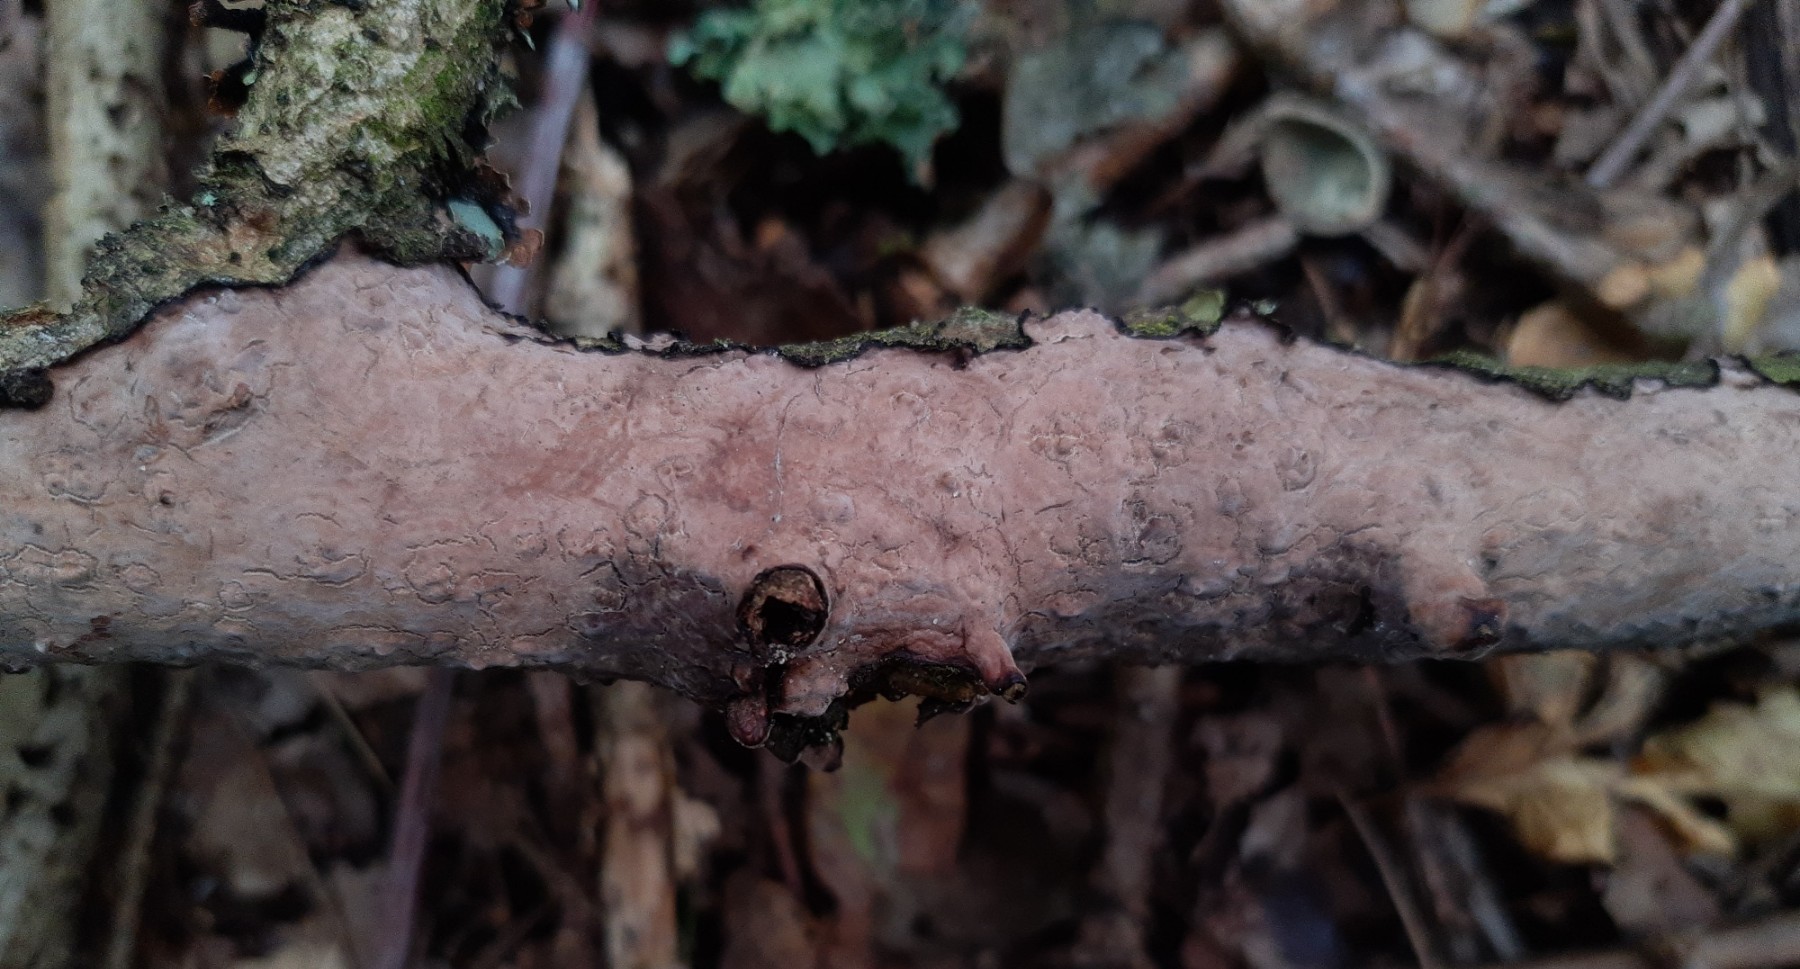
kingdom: Fungi
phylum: Basidiomycota
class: Agaricomycetes
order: Russulales
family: Peniophoraceae
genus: Peniophora
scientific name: Peniophora quercina
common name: ege-voksskind
